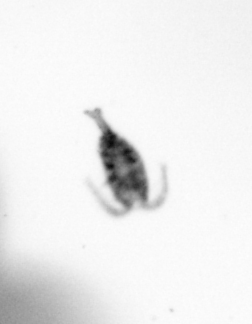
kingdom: Animalia
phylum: Arthropoda
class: Copepoda
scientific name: Copepoda
